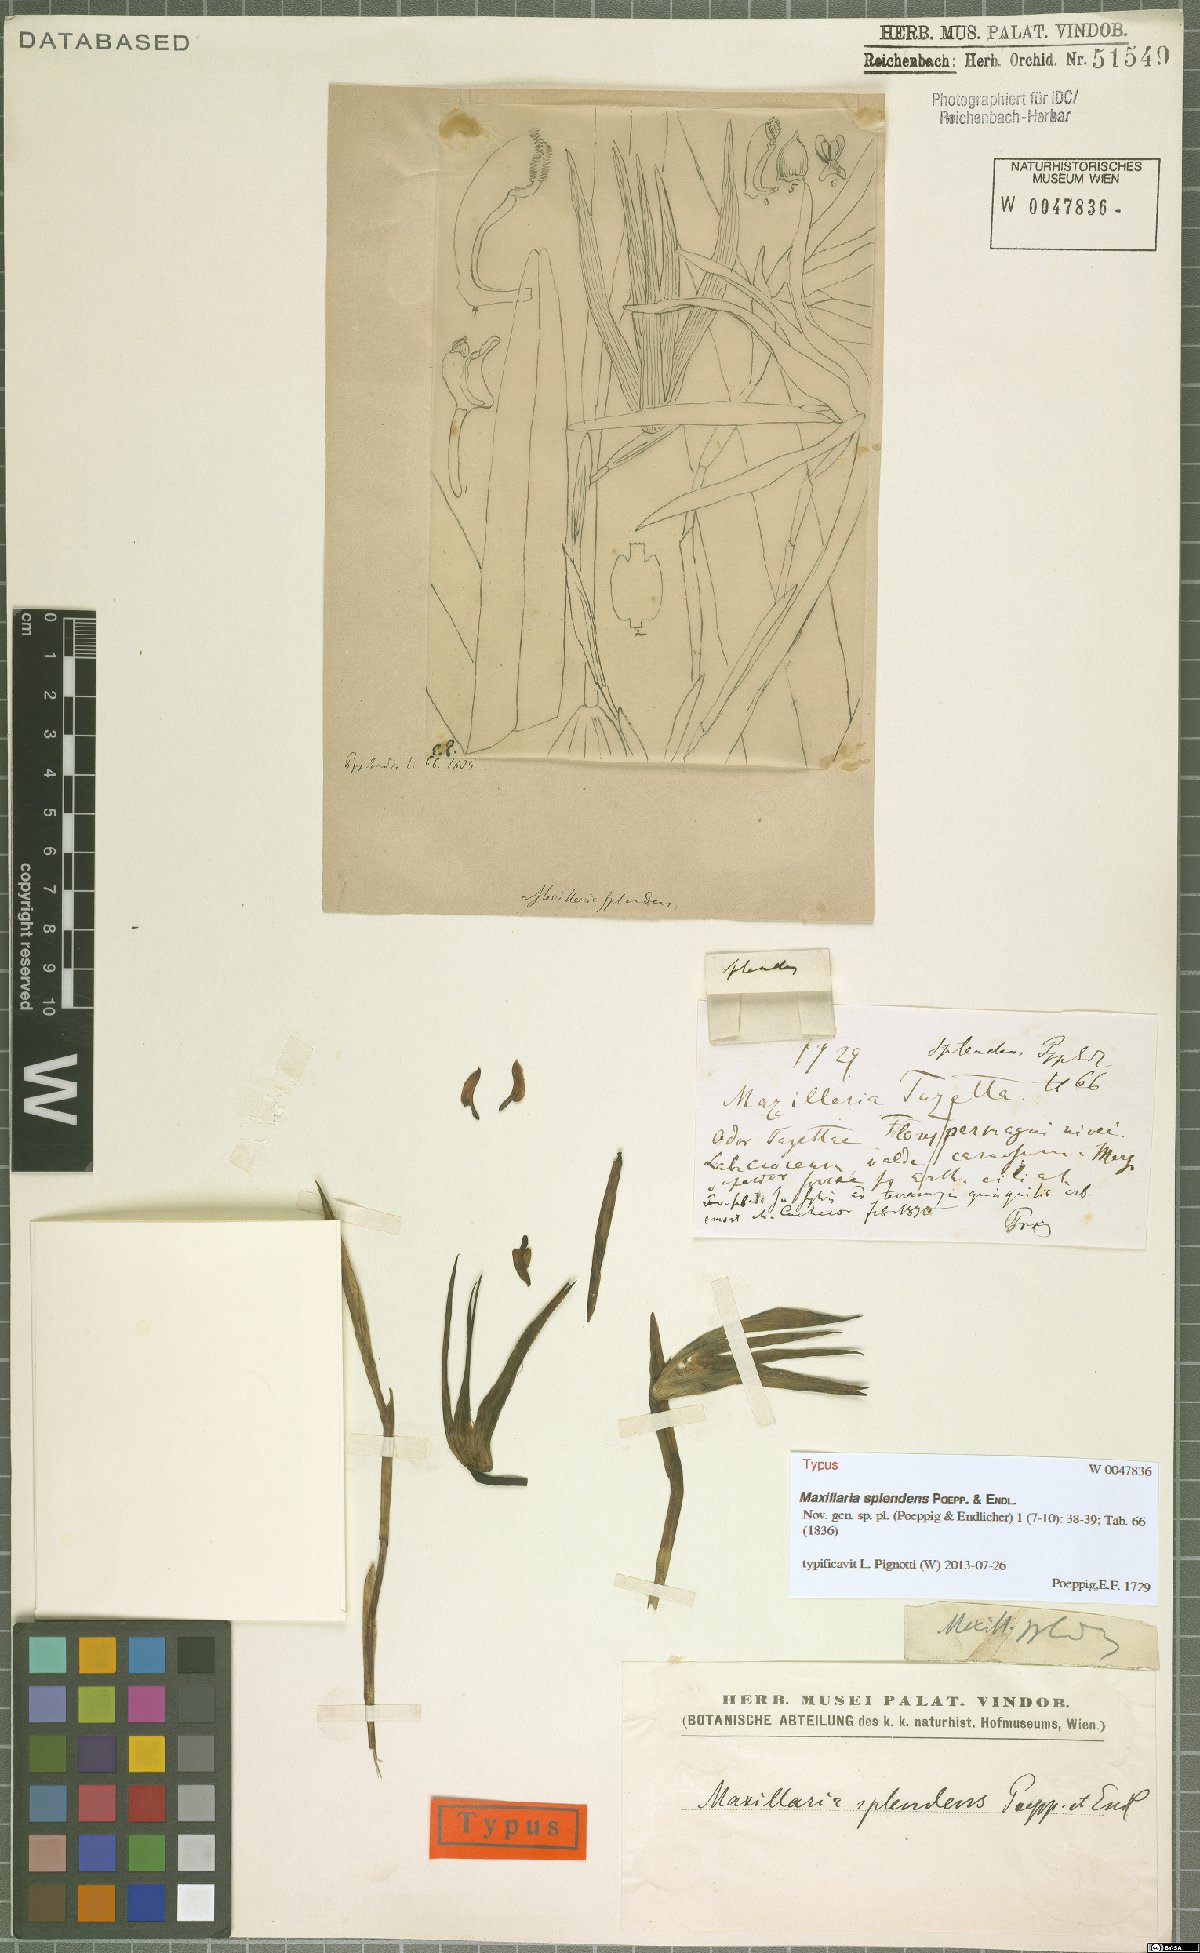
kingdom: Plantae
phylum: Tracheophyta
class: Liliopsida
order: Asparagales
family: Orchidaceae
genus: Maxillaria
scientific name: Maxillaria splendens
